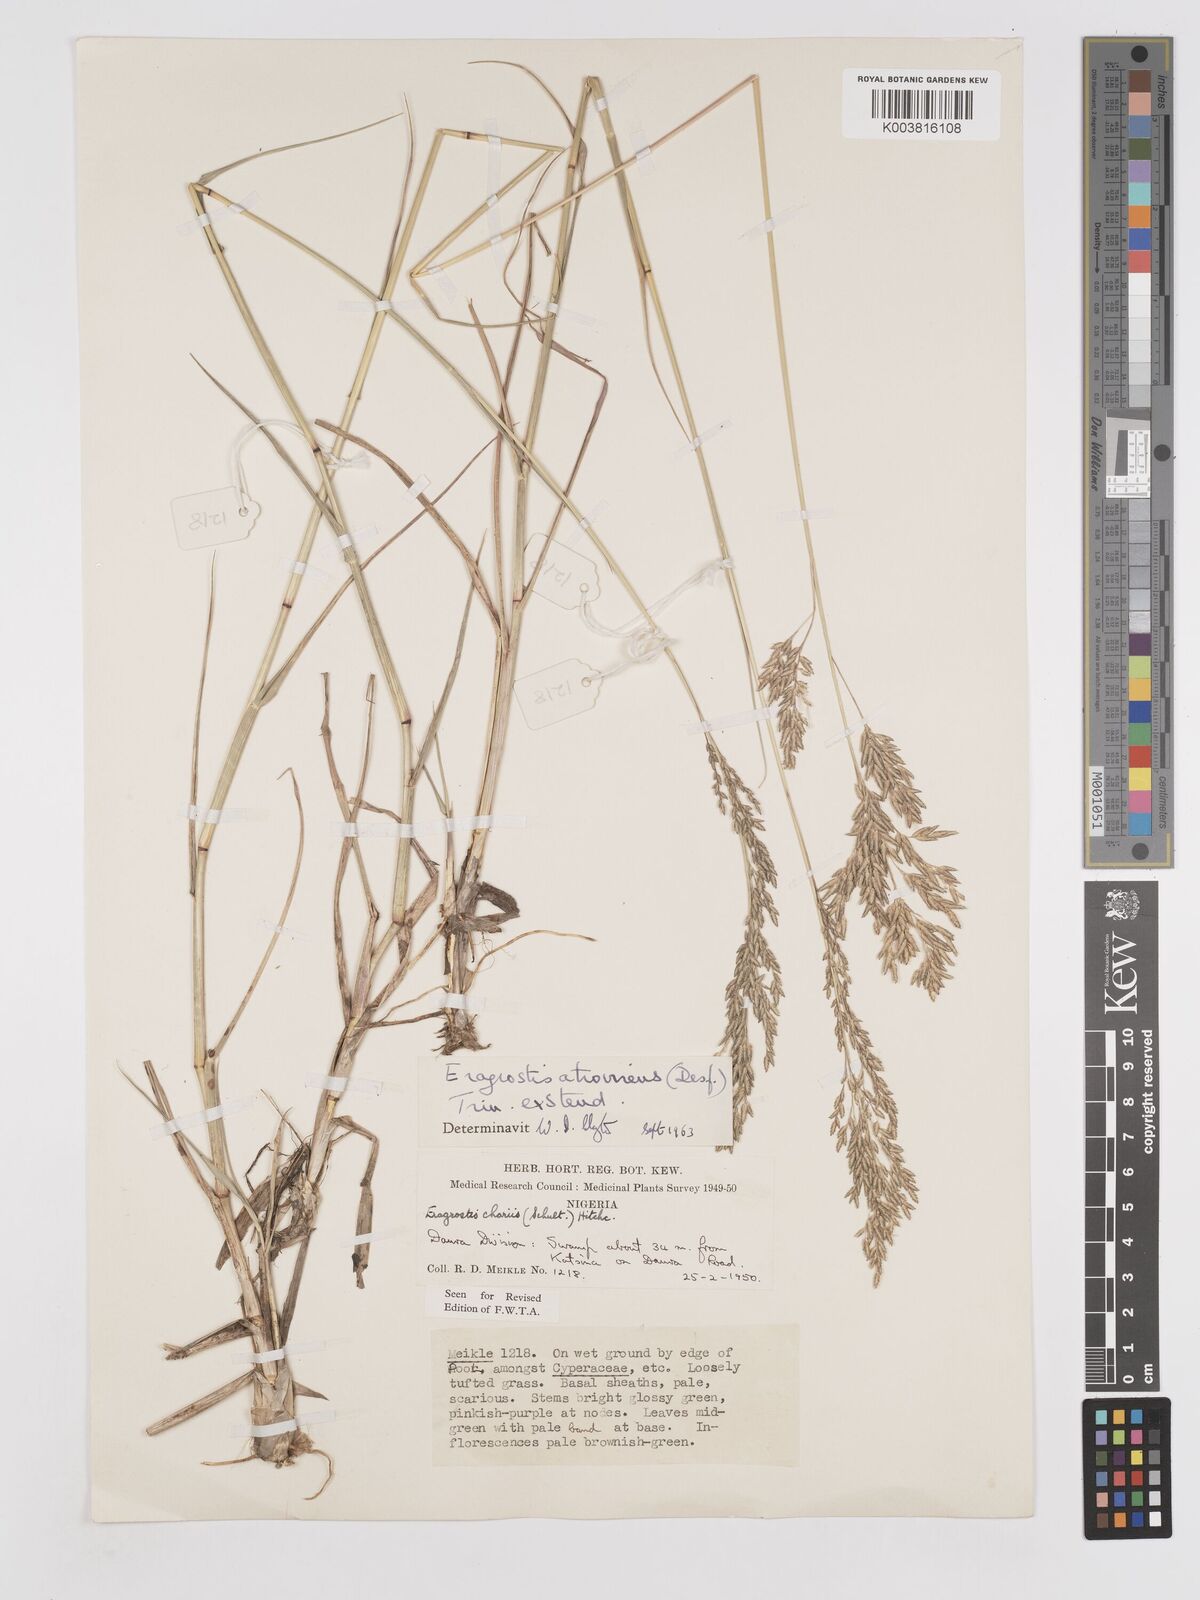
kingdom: Plantae
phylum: Tracheophyta
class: Liliopsida
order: Poales
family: Poaceae
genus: Eragrostis
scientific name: Eragrostis atrovirens
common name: Thalia lovegrass
